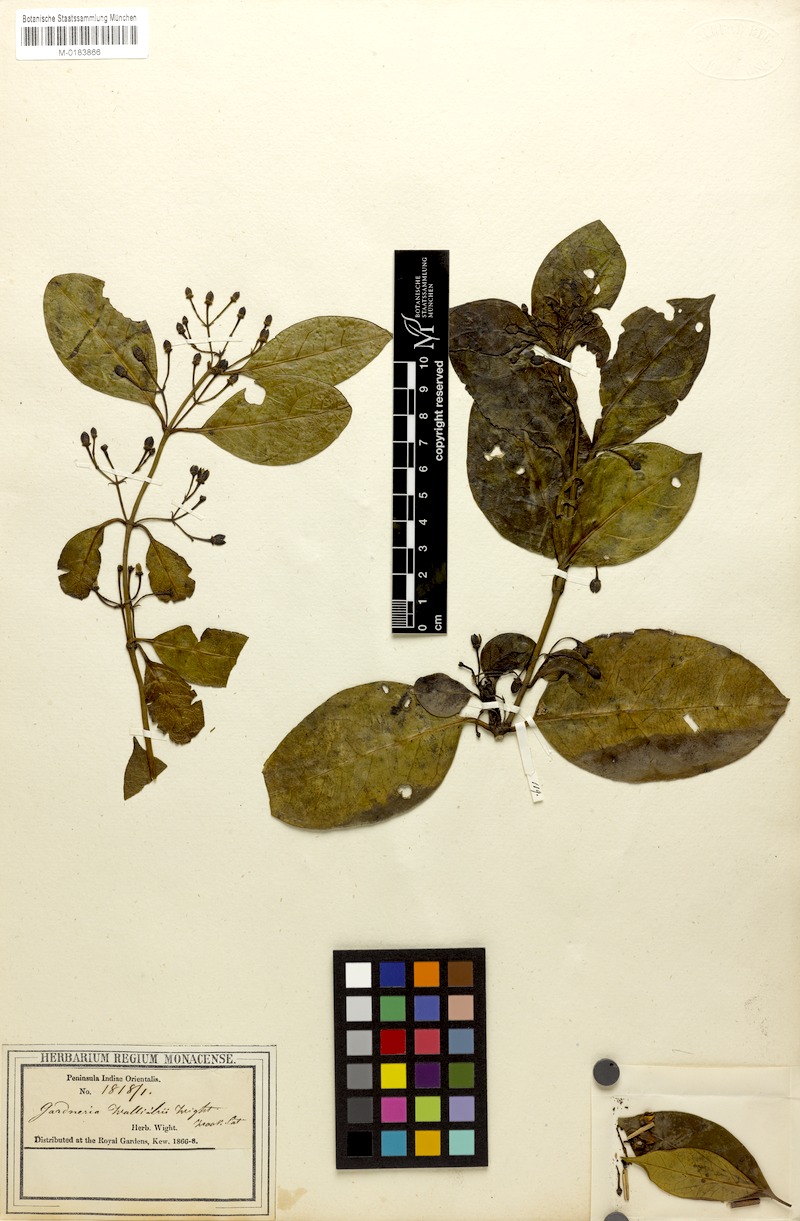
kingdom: Plantae
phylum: Tracheophyta
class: Magnoliopsida
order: Gentianales
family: Loganiaceae
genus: Gardneria
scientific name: Gardneria ovata
